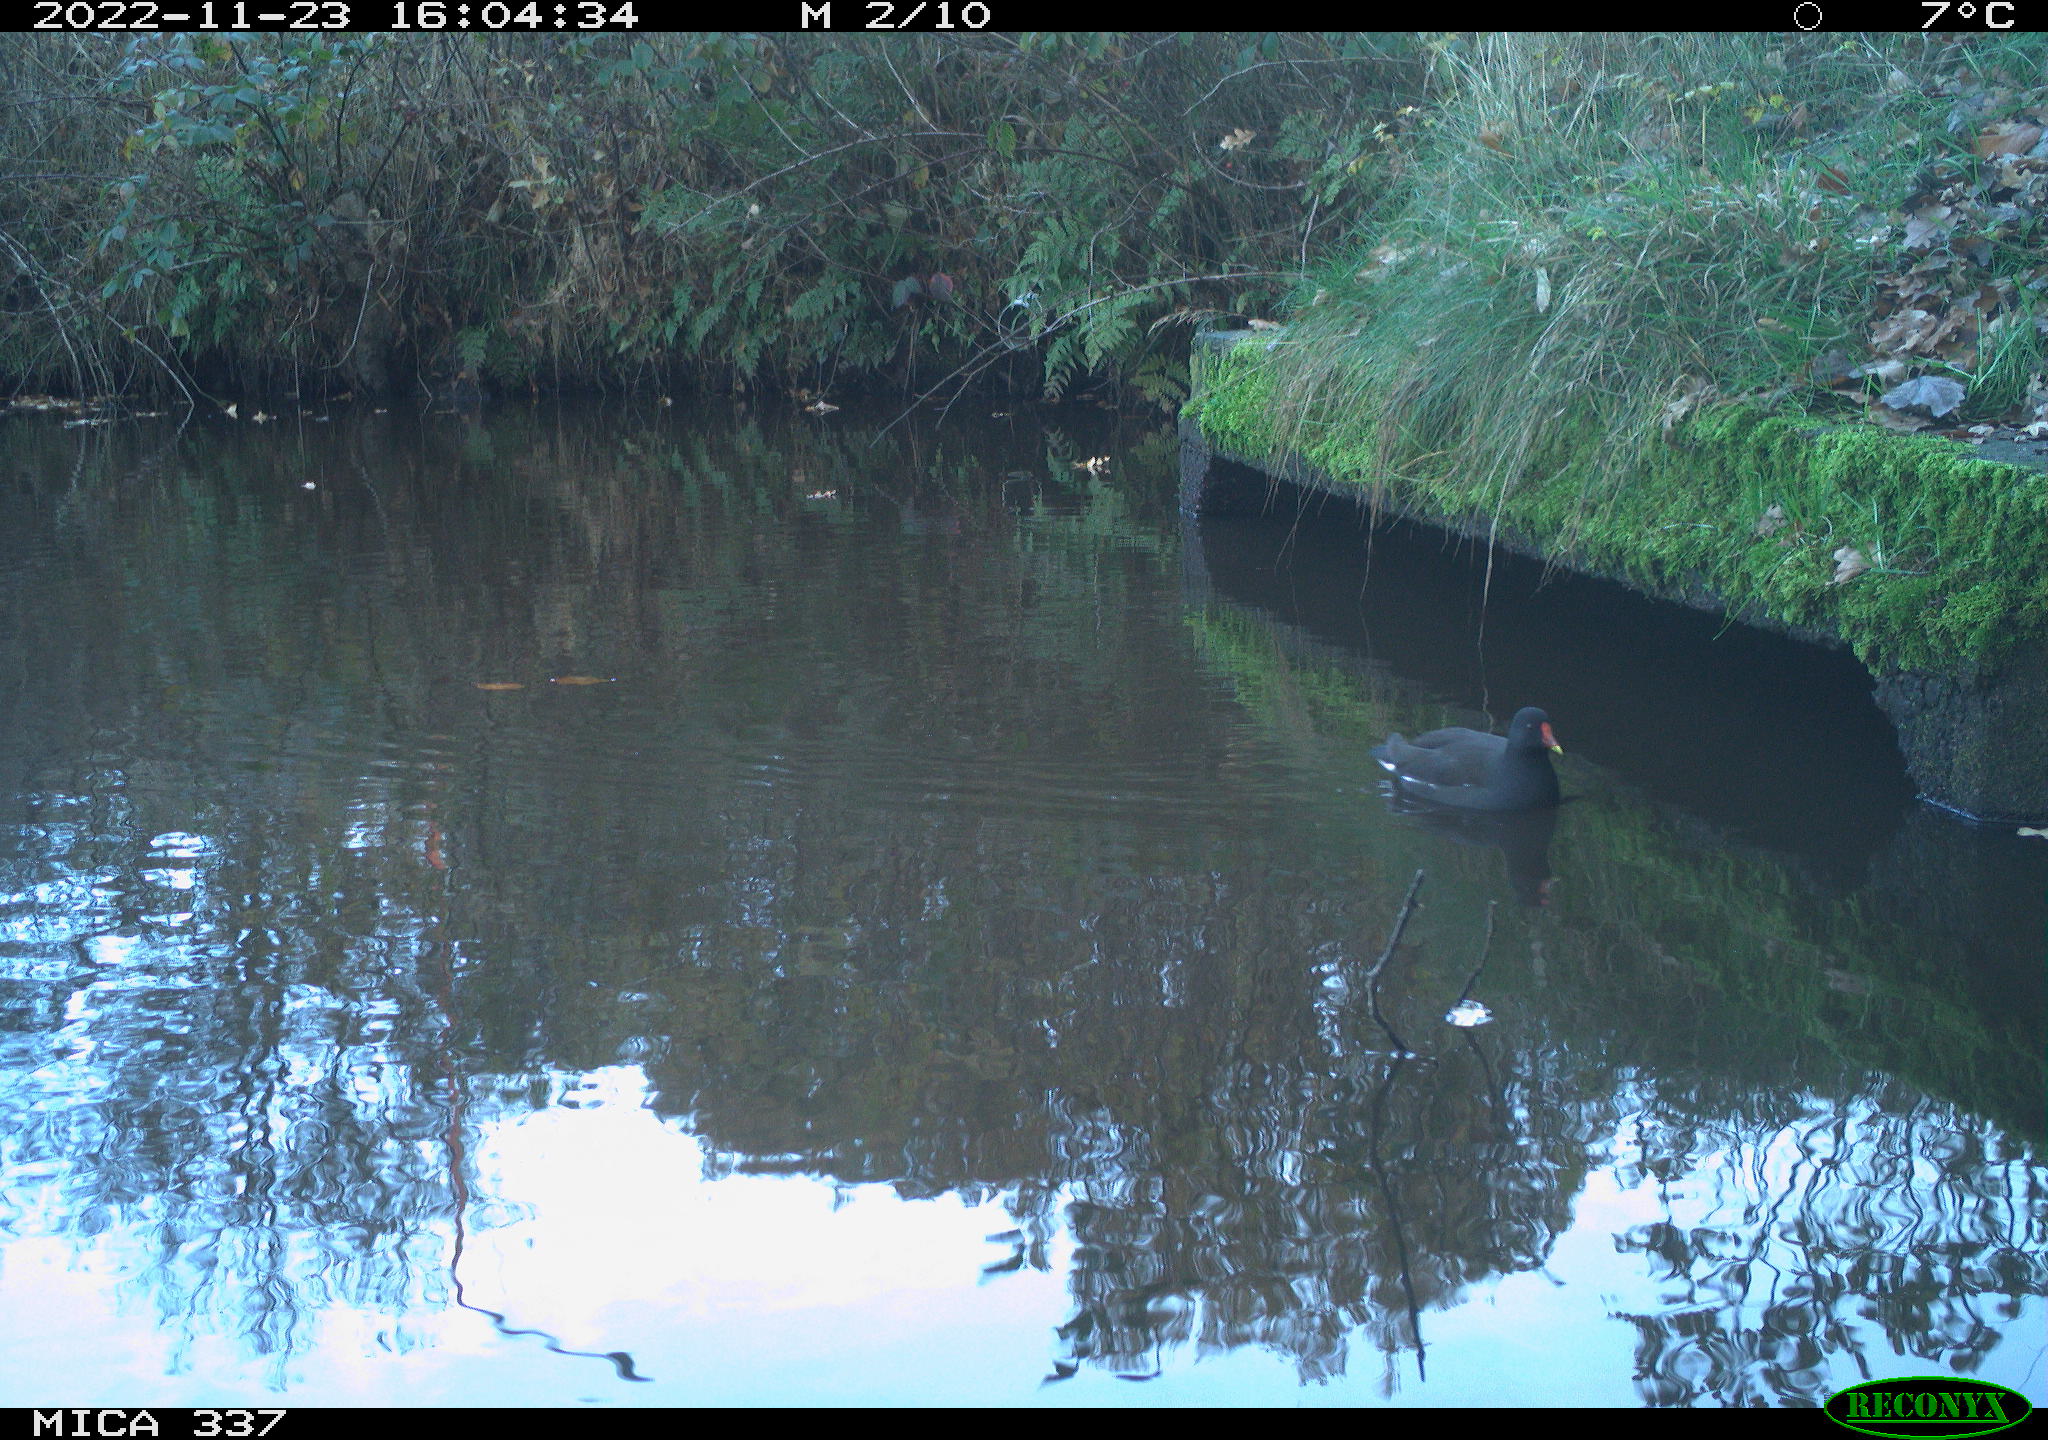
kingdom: Animalia
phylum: Chordata
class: Aves
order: Gruiformes
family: Rallidae
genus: Gallinula
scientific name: Gallinula chloropus
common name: Common moorhen
